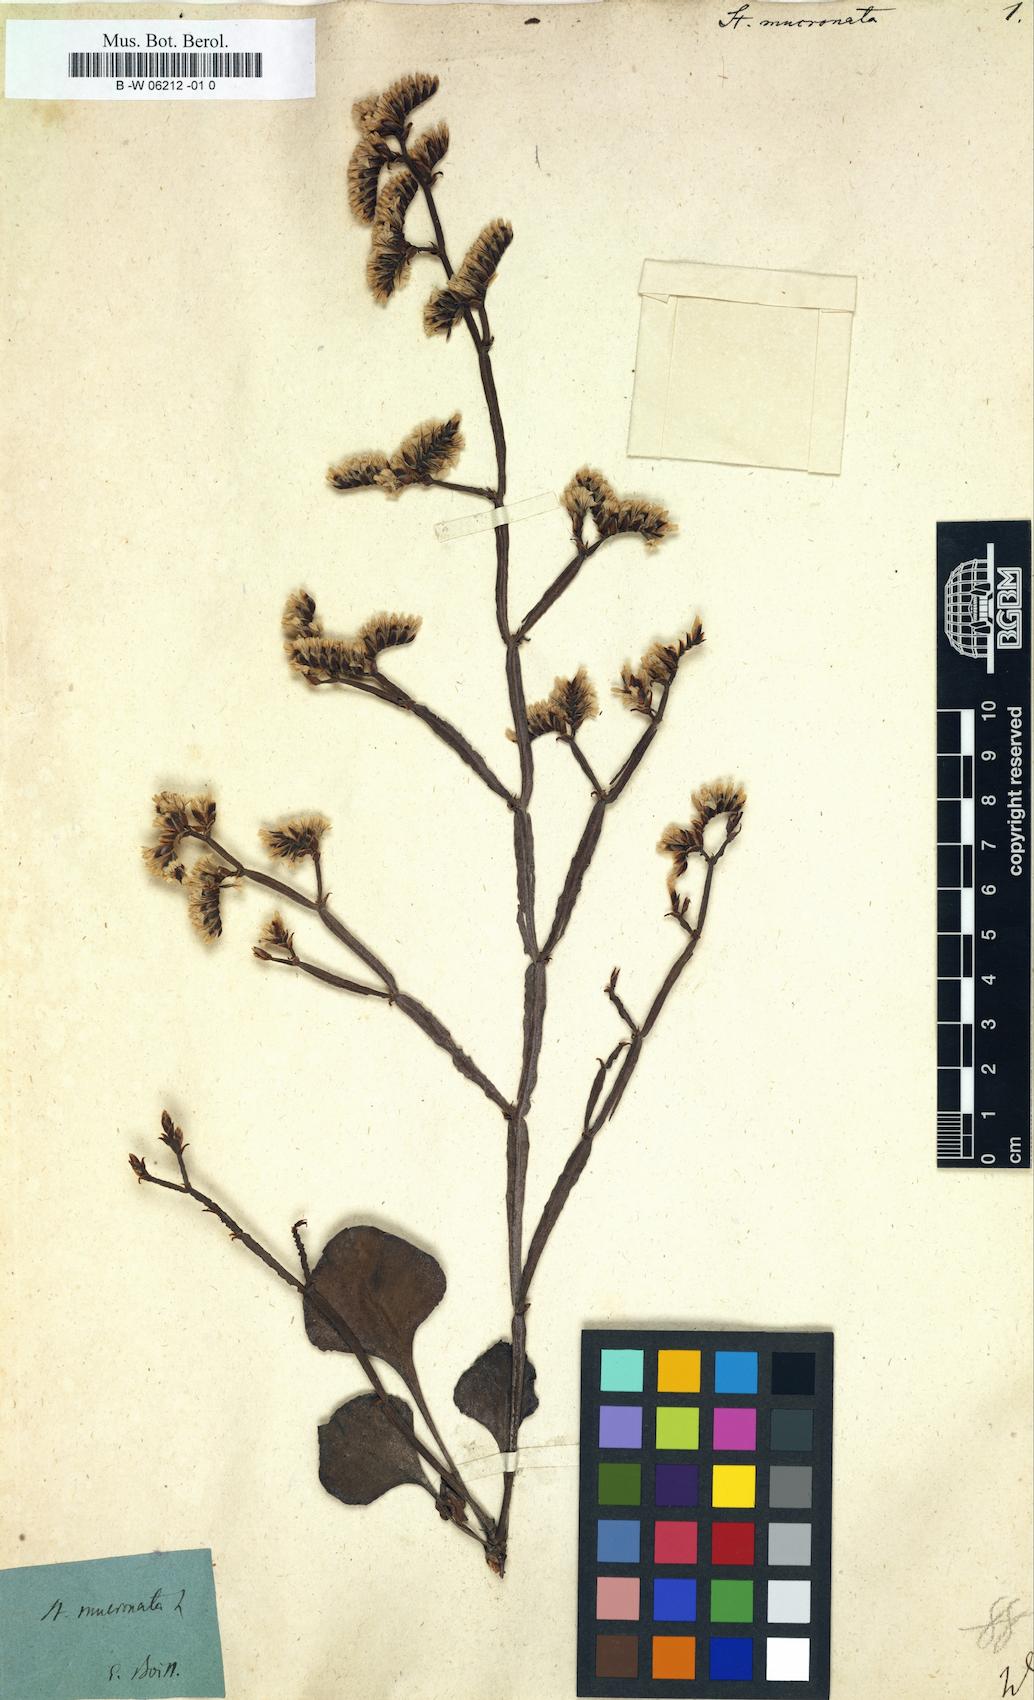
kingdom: Plantae
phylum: Tracheophyta
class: Magnoliopsida
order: Caryophyllales
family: Plumbaginaceae
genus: Limonium
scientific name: Limonium mucronatum
